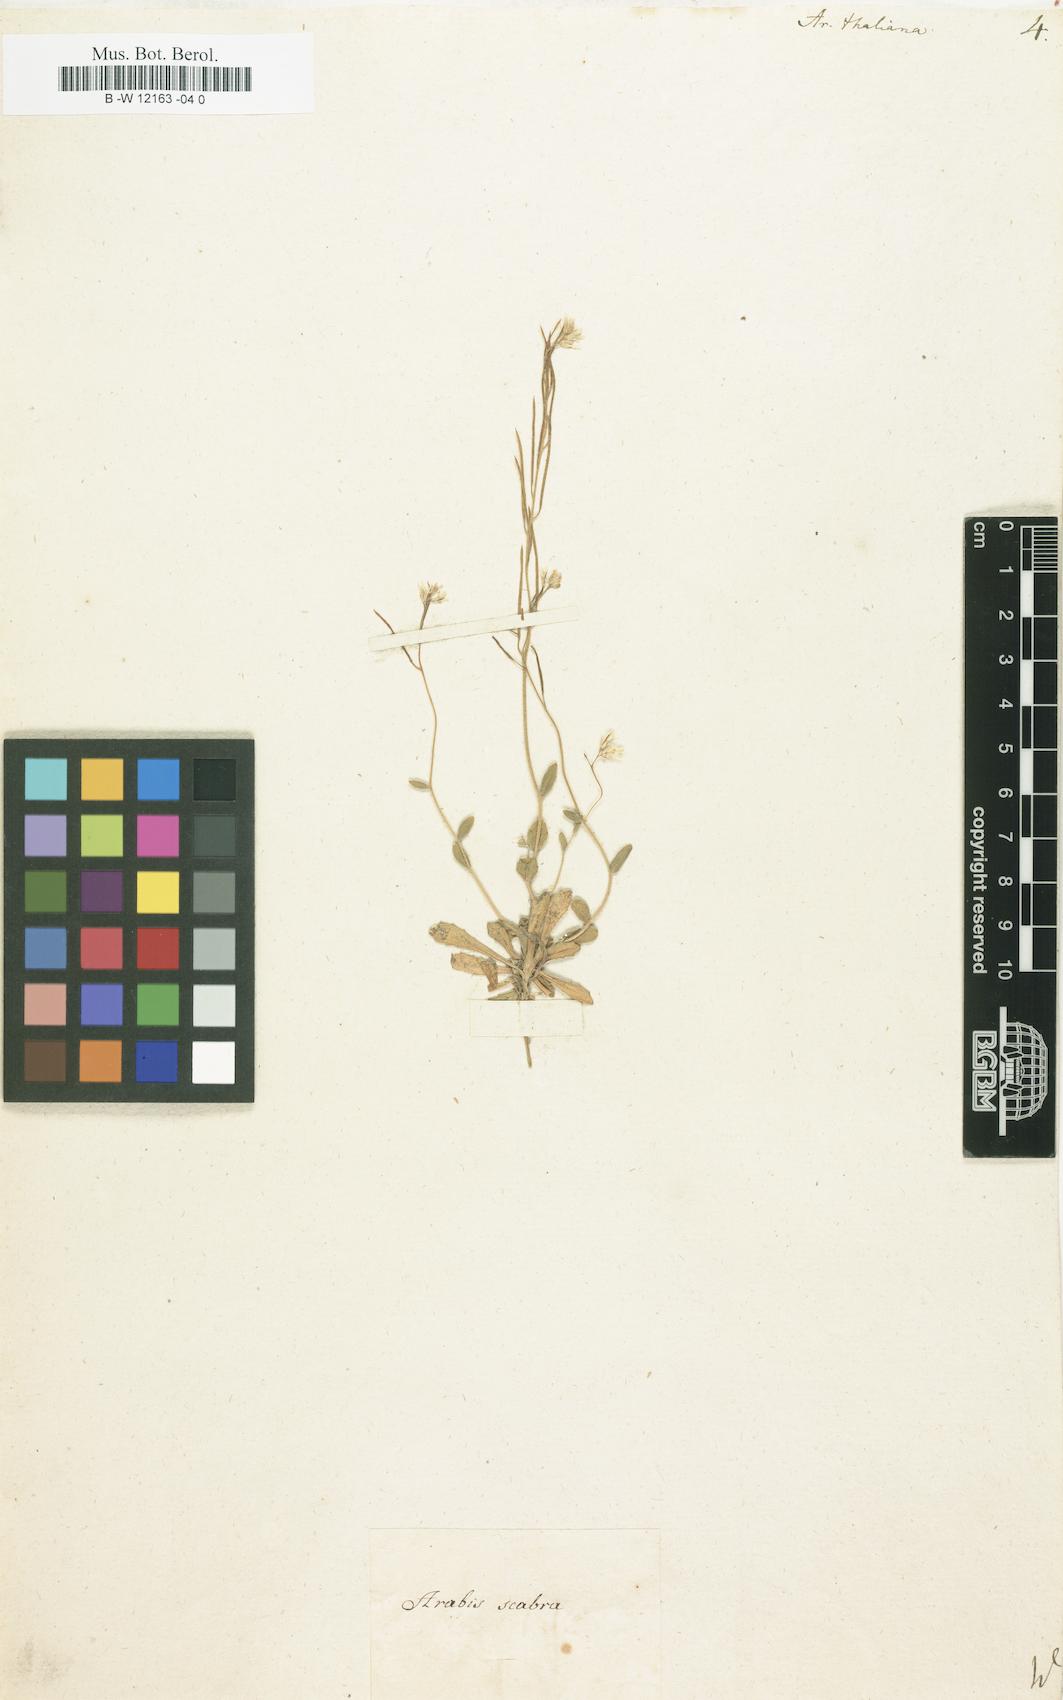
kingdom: Plantae
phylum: Tracheophyta
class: Magnoliopsida
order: Brassicales
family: Brassicaceae
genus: Arabidopsis
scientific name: Arabidopsis
